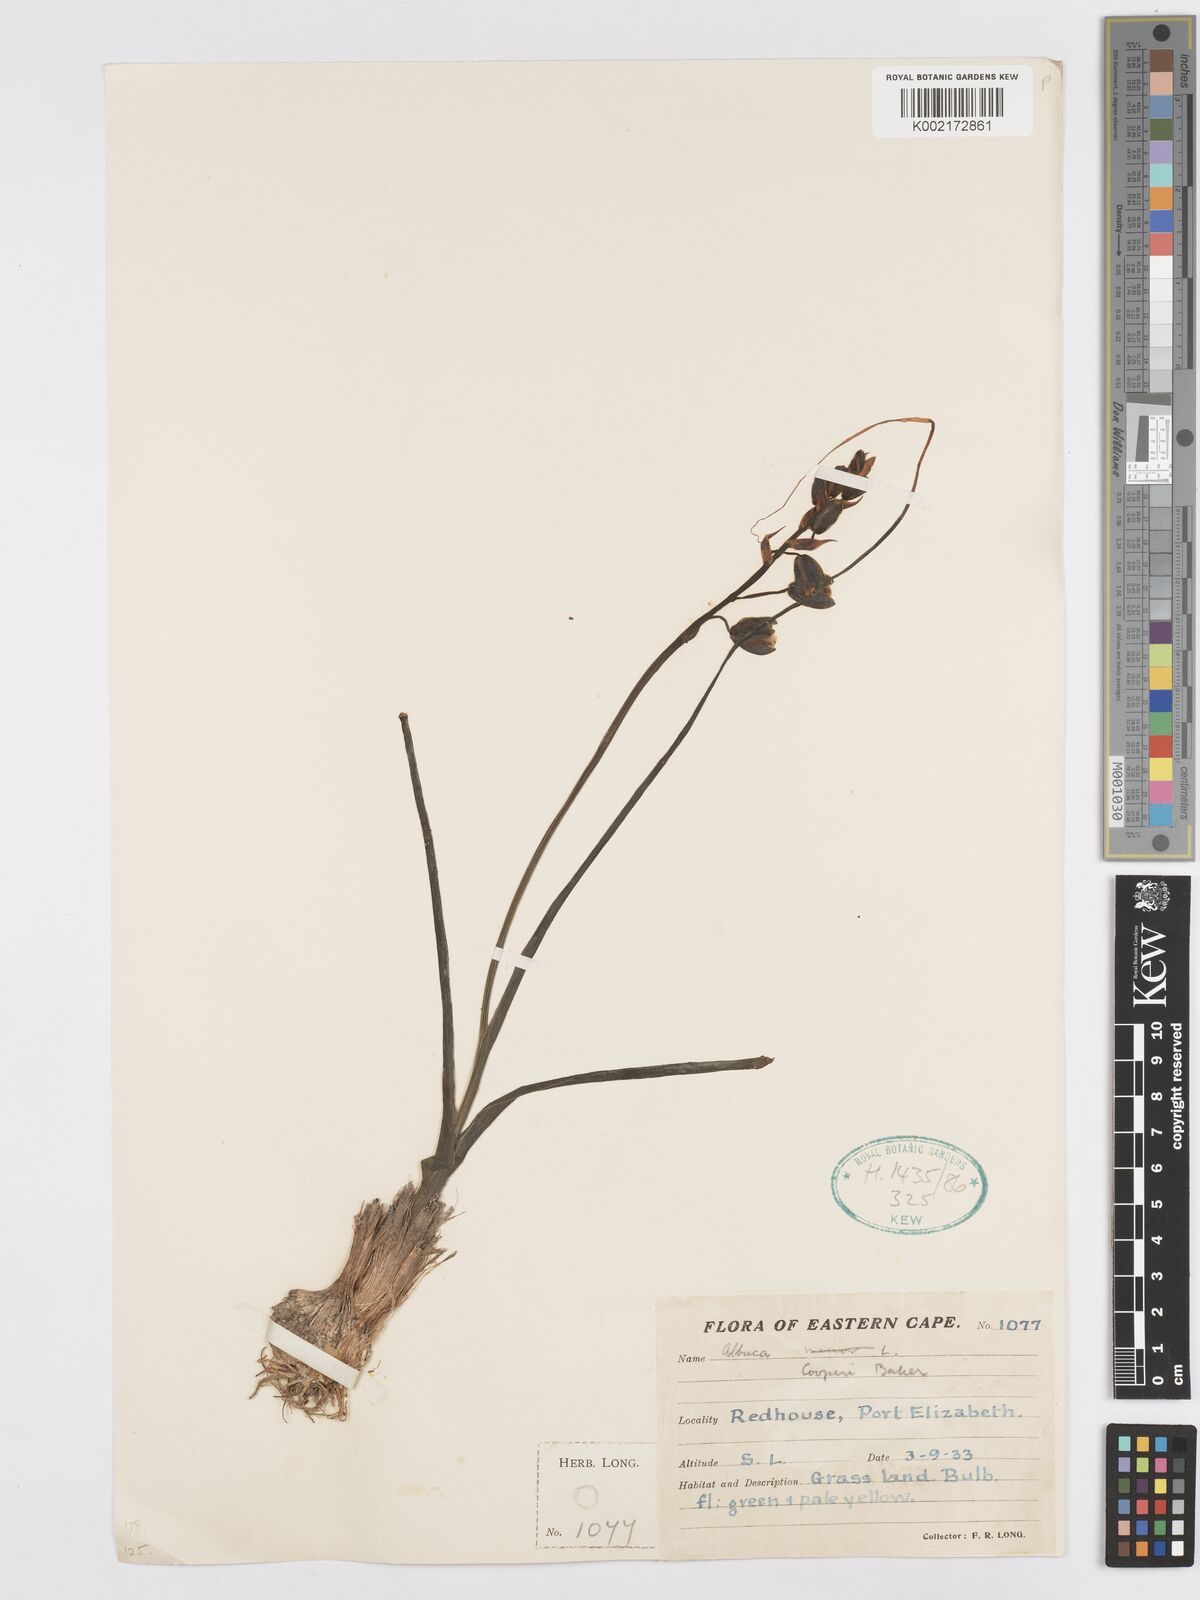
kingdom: Plantae
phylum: Tracheophyta
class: Liliopsida
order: Asparagales
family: Asparagaceae
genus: Albuca
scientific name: Albuca cooperi
